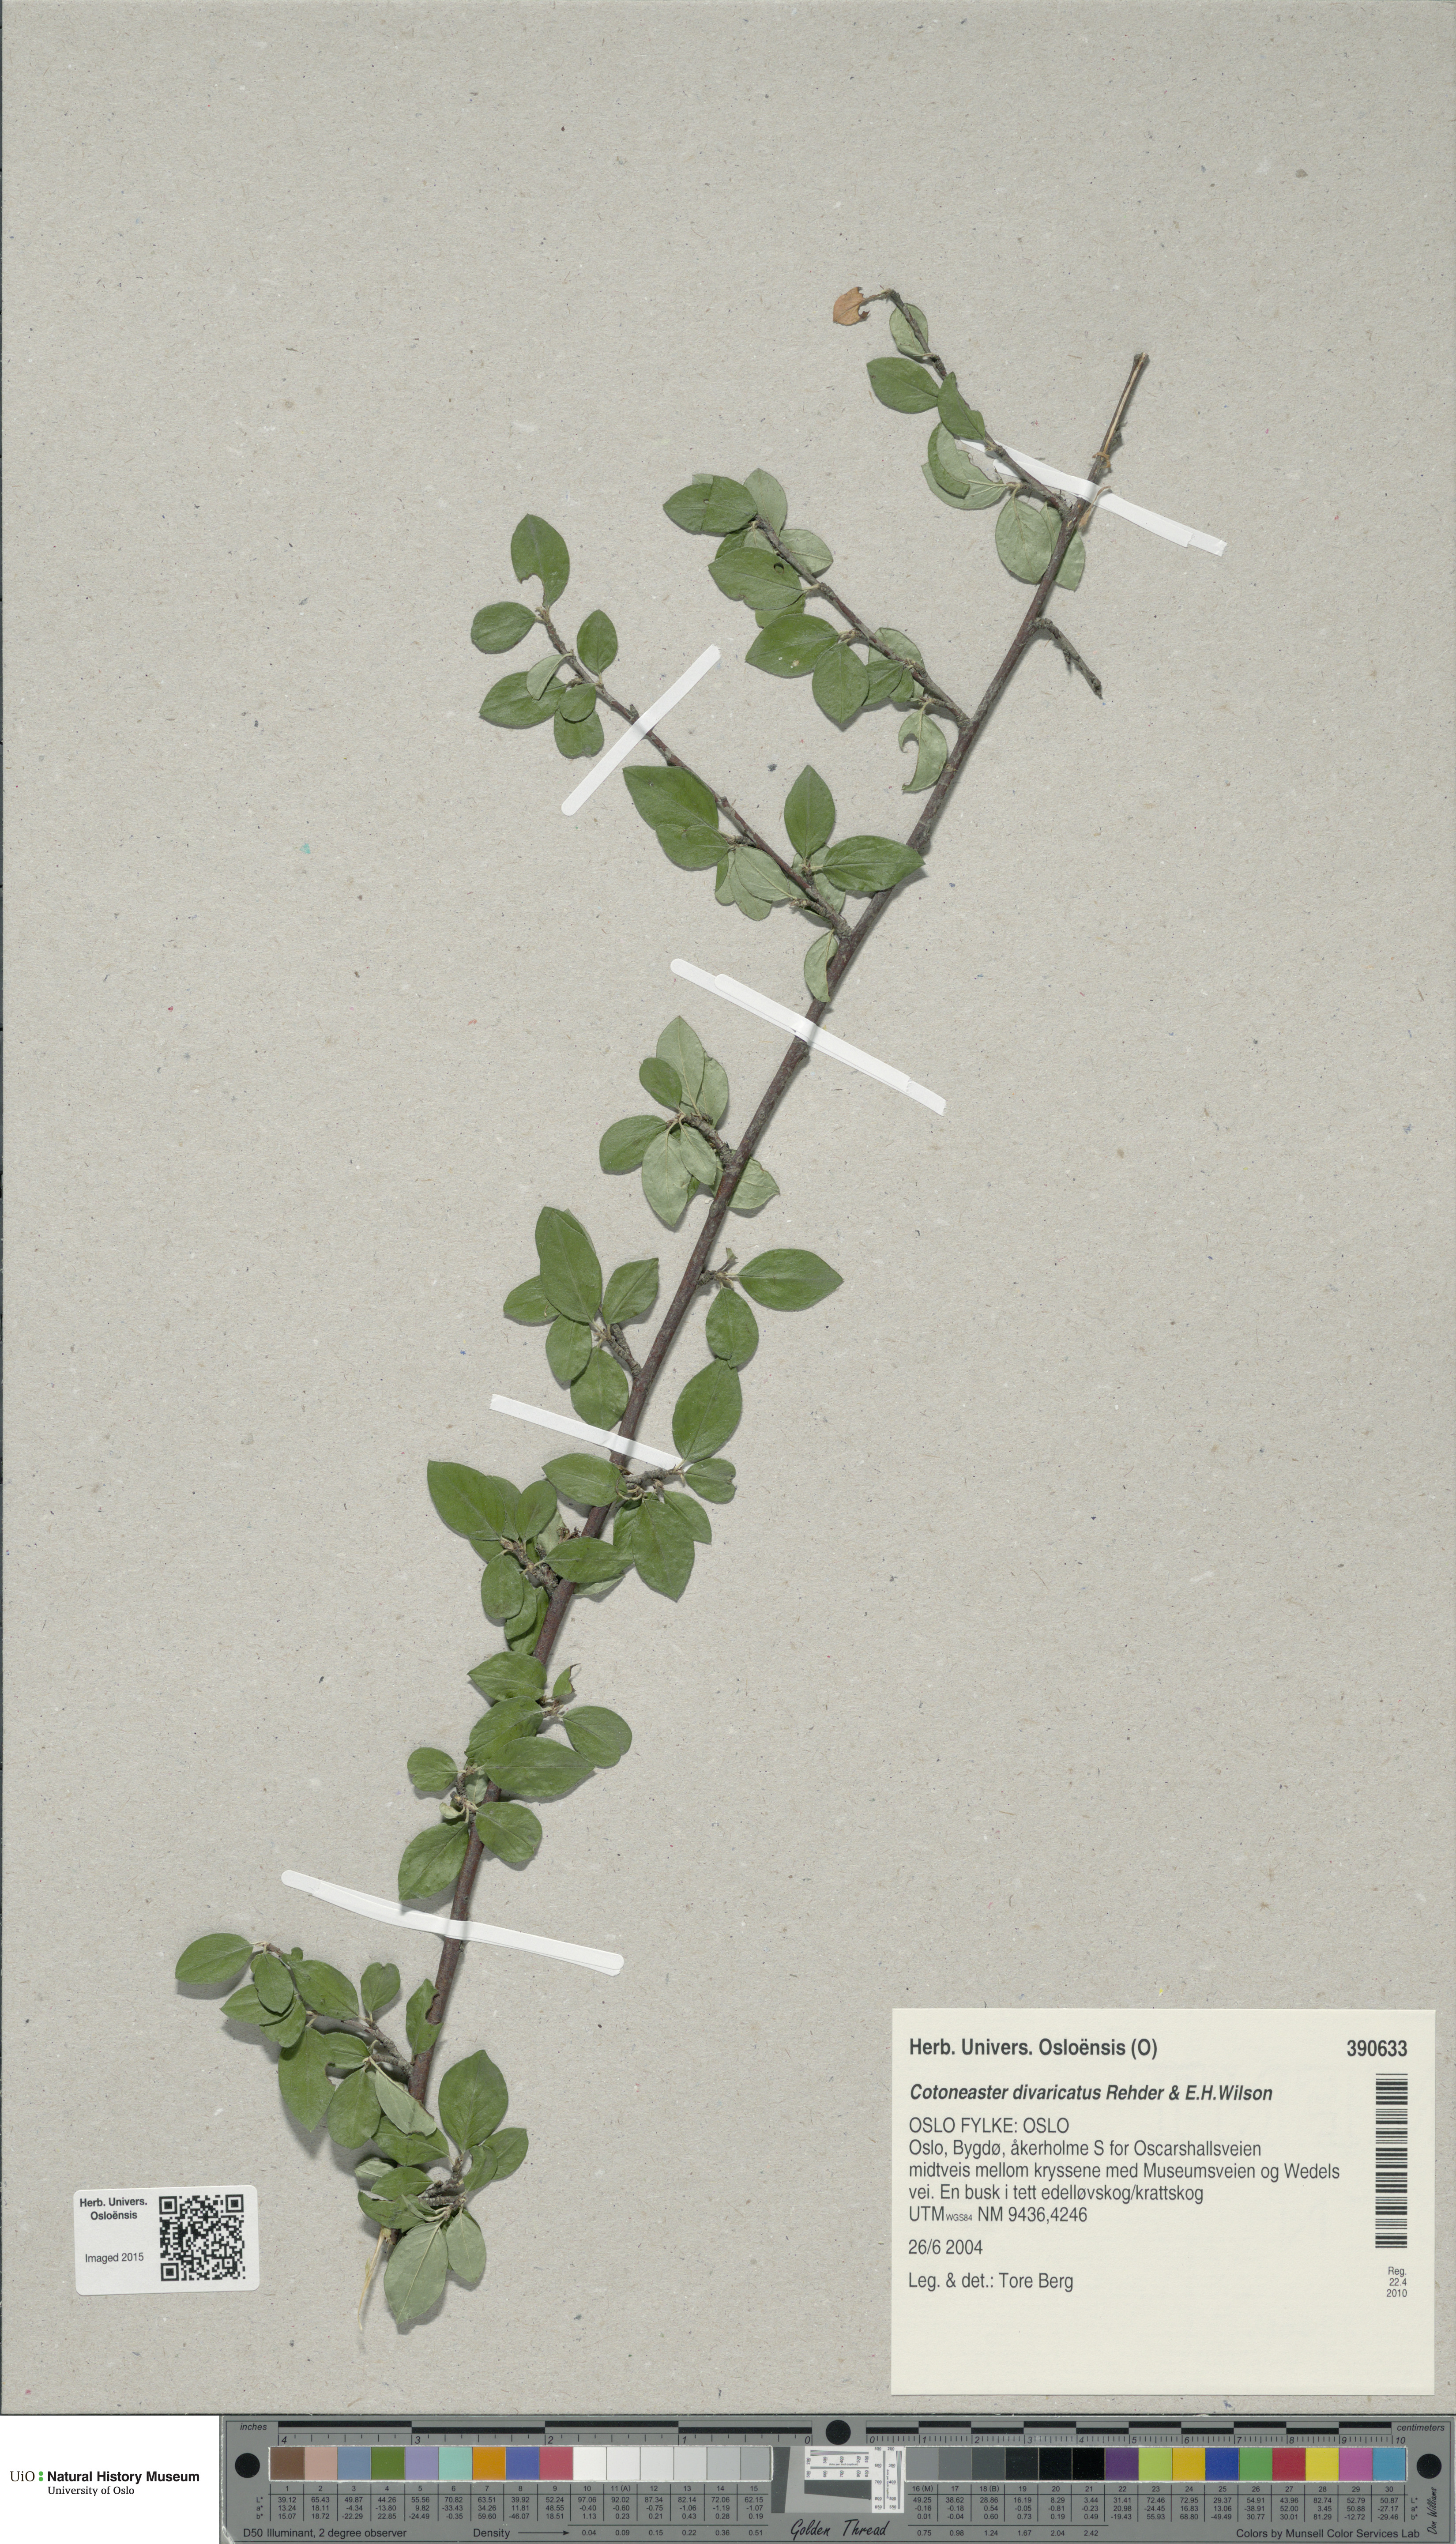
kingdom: Plantae
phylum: Tracheophyta
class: Magnoliopsida
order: Rosales
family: Rosaceae
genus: Cotoneaster
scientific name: Cotoneaster divaricatus
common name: Spreading cotoneaster
